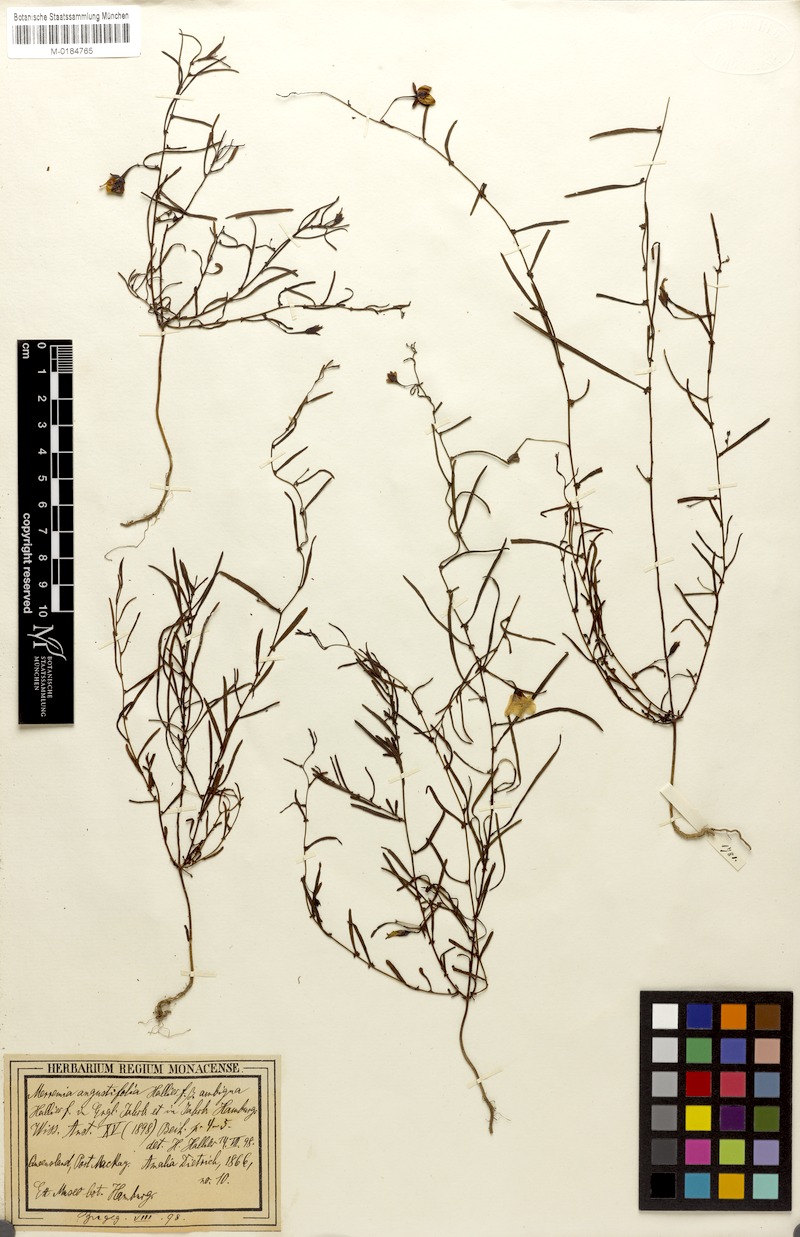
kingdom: Plantae
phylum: Tracheophyta
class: Magnoliopsida
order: Solanales
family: Convolvulaceae
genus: Xenostegia
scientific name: Xenostegia tridentata
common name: African morningvine
